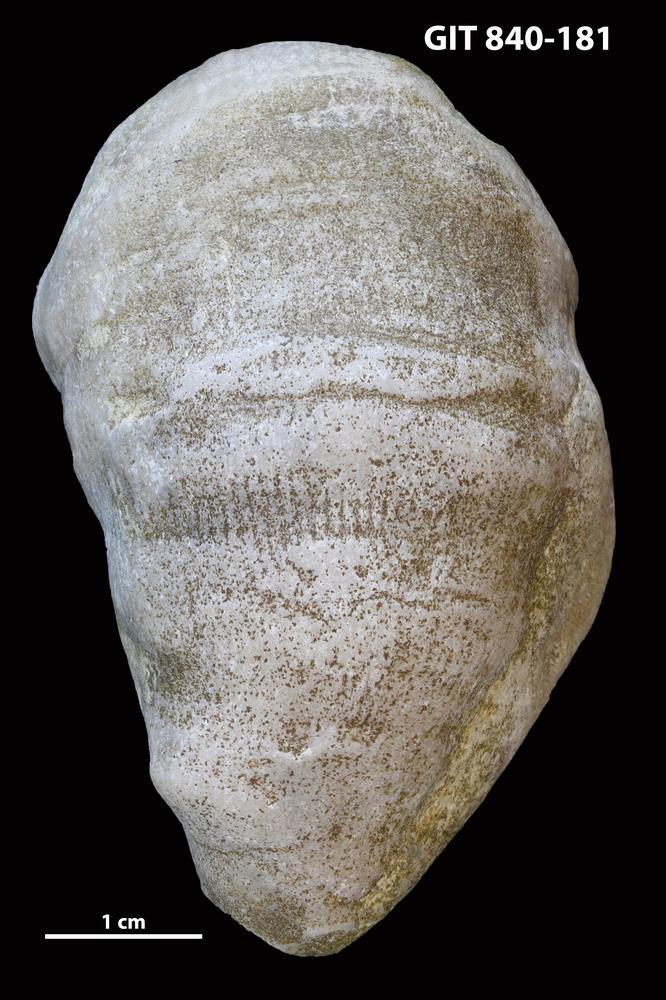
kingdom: Animalia
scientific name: Animalia
